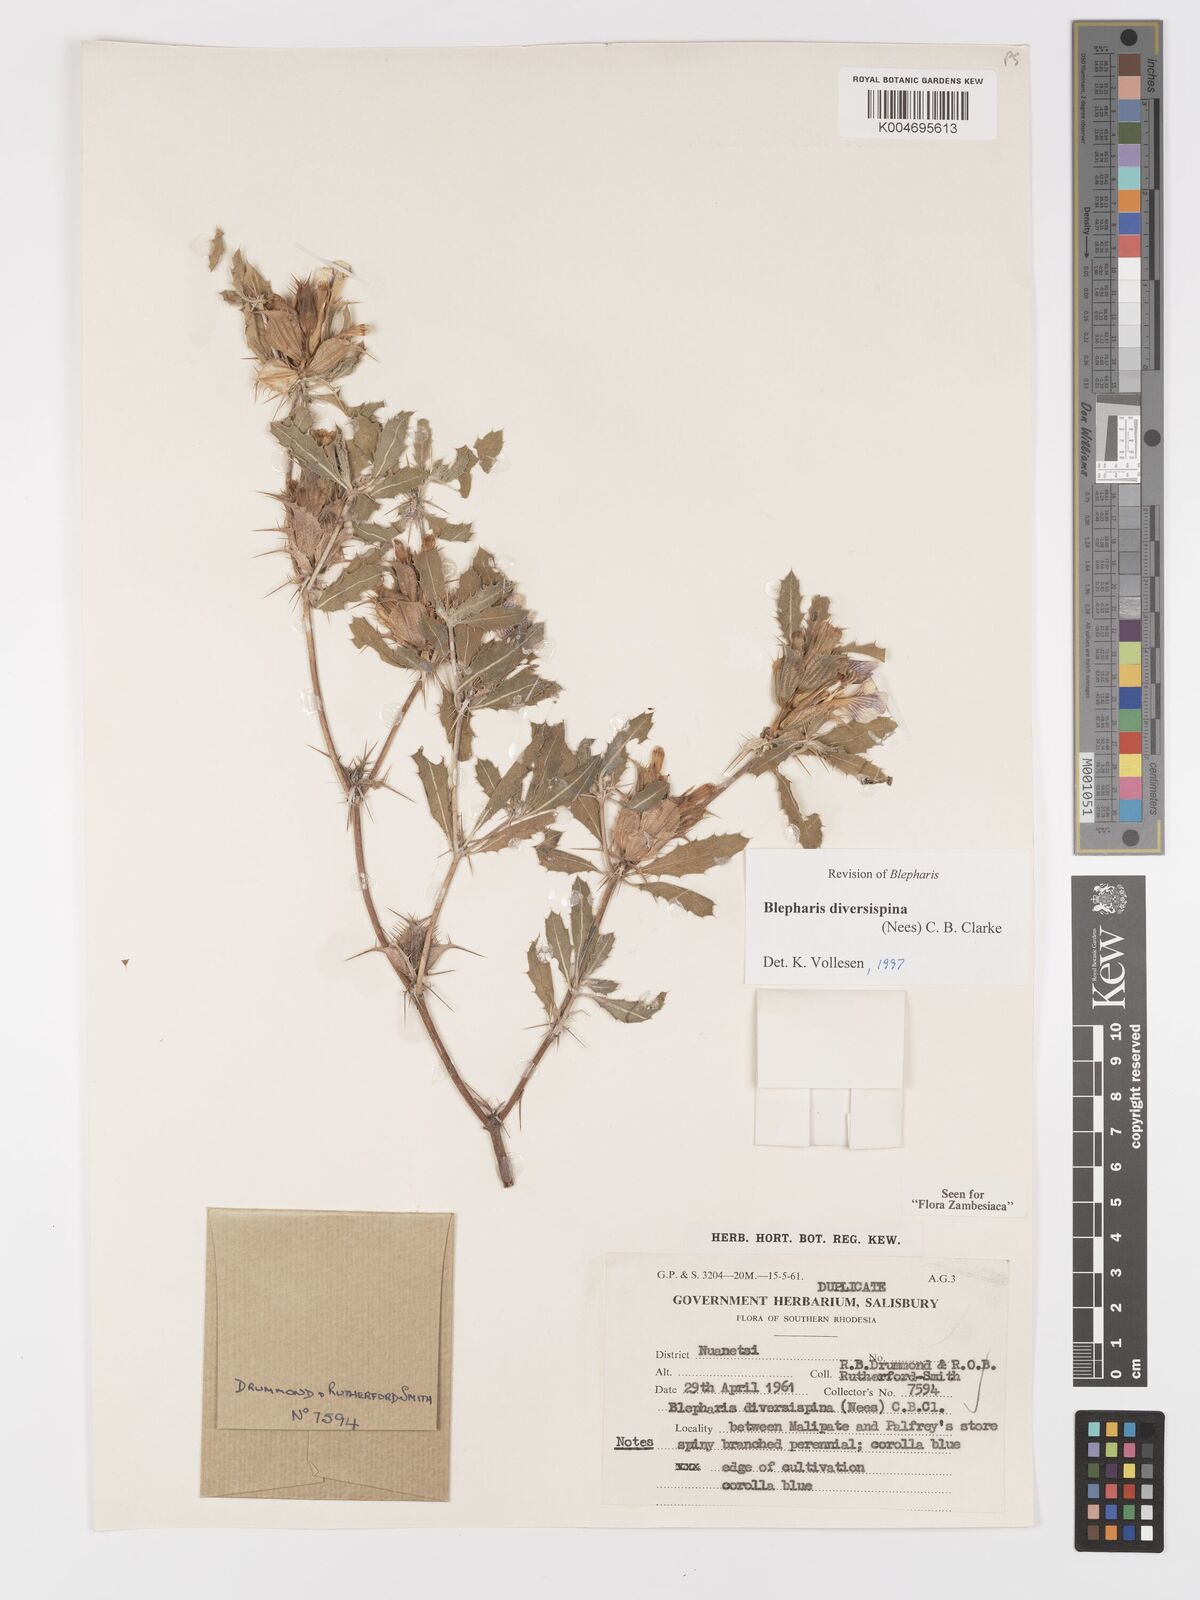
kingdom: Plantae
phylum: Tracheophyta
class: Magnoliopsida
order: Lamiales
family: Acanthaceae
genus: Blepharis
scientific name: Blepharis diversispina
